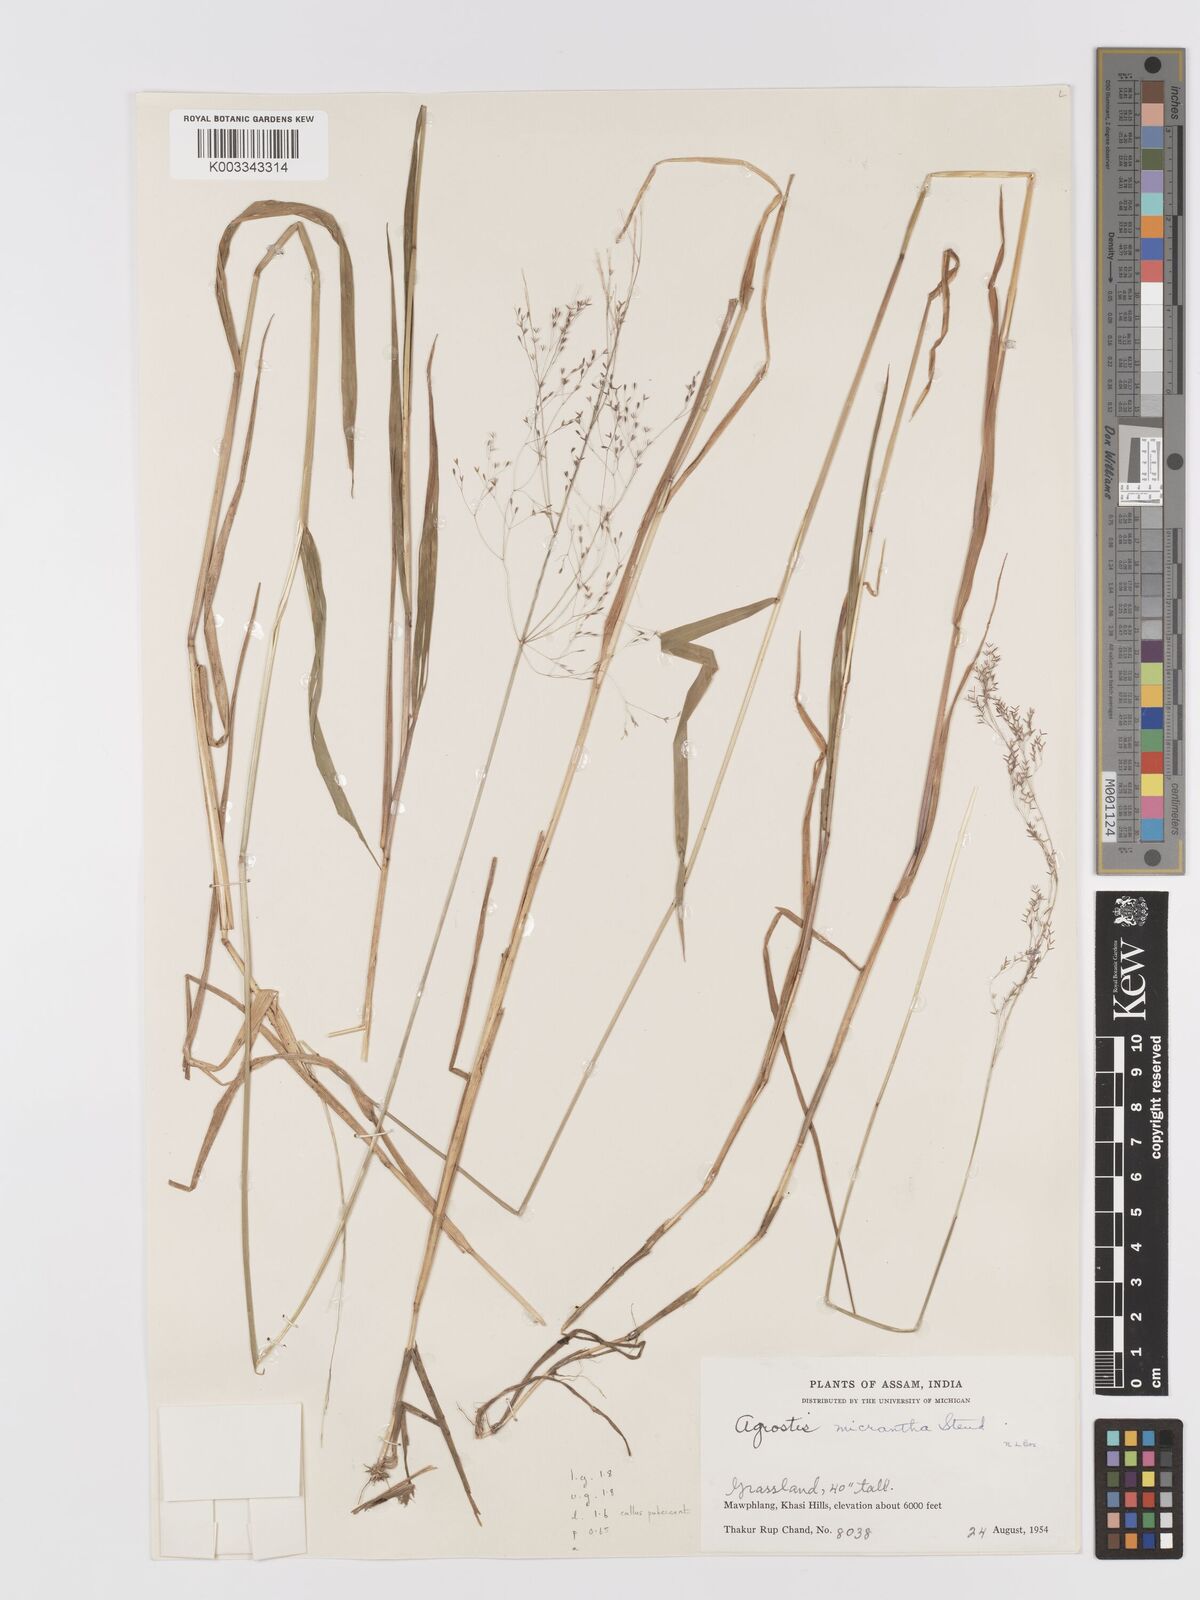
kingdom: Plantae
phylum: Tracheophyta
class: Liliopsida
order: Poales
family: Poaceae
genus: Agrostis
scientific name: Agrostis micrantha
